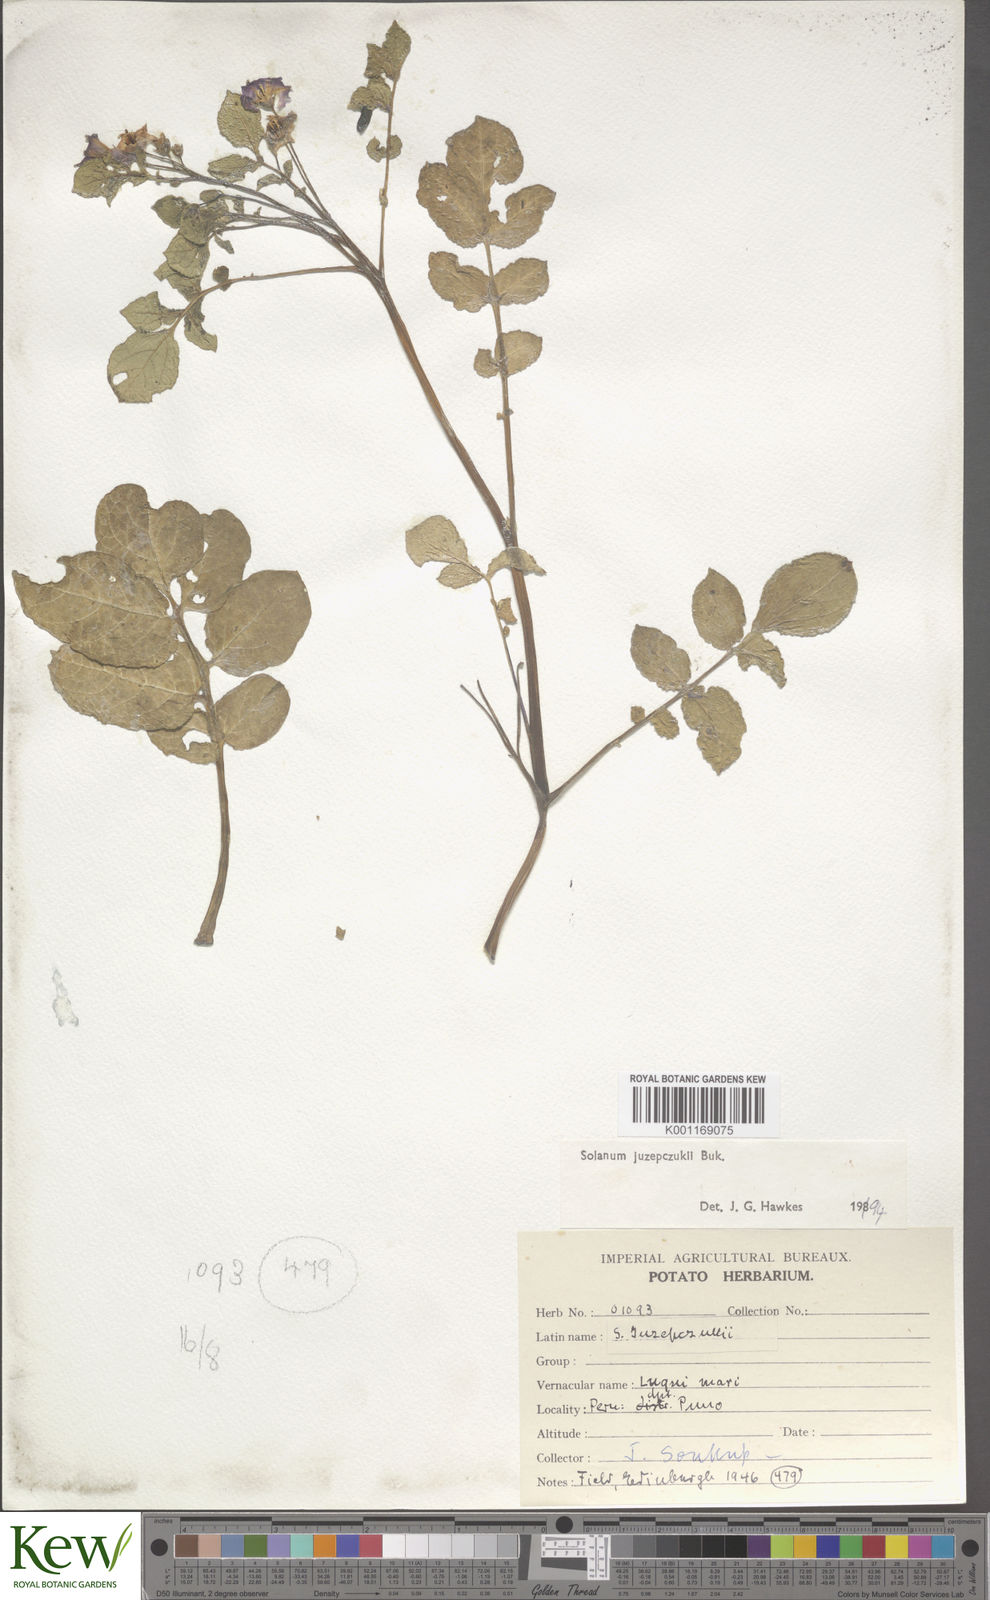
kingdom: Plantae
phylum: Tracheophyta
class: Magnoliopsida
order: Solanales
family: Solanaceae
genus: Solanum
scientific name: Solanum juzepczukii
